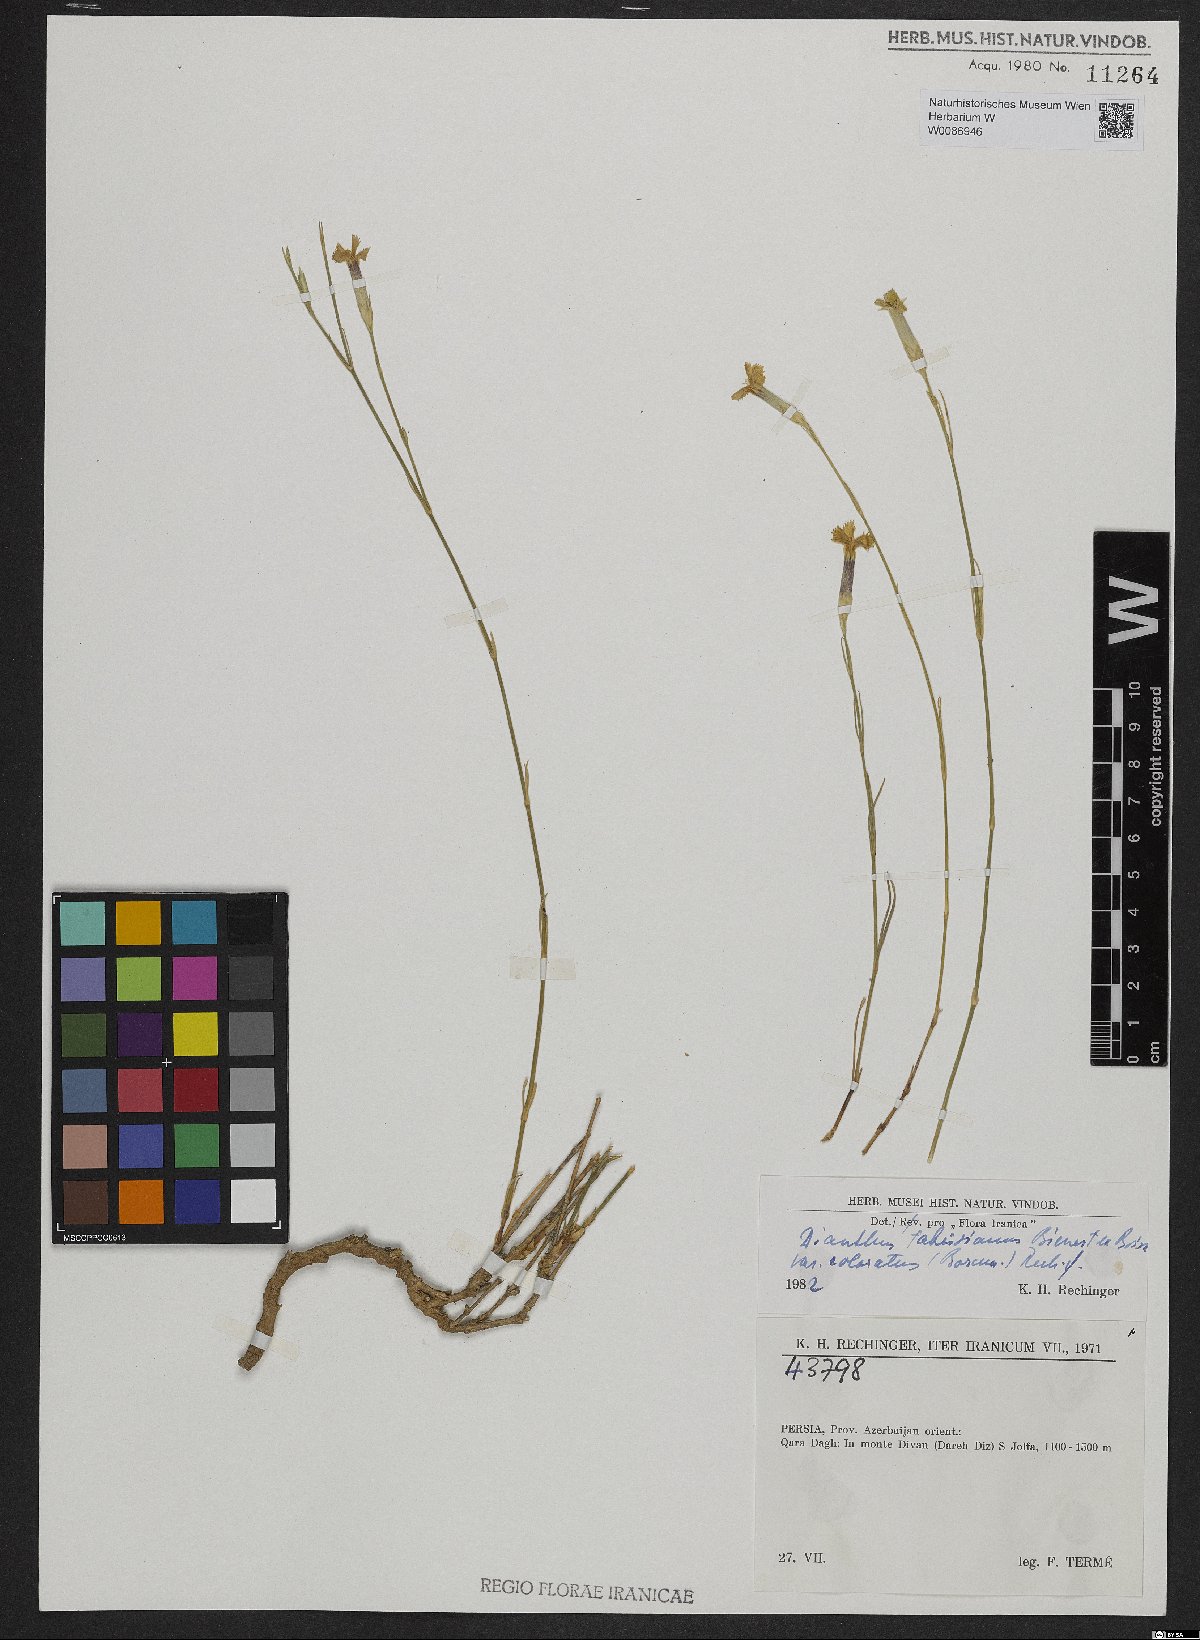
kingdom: Plantae
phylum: Tracheophyta
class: Magnoliopsida
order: Caryophyllales
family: Caryophyllaceae
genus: Dianthus
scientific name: Dianthus tabrisianus
